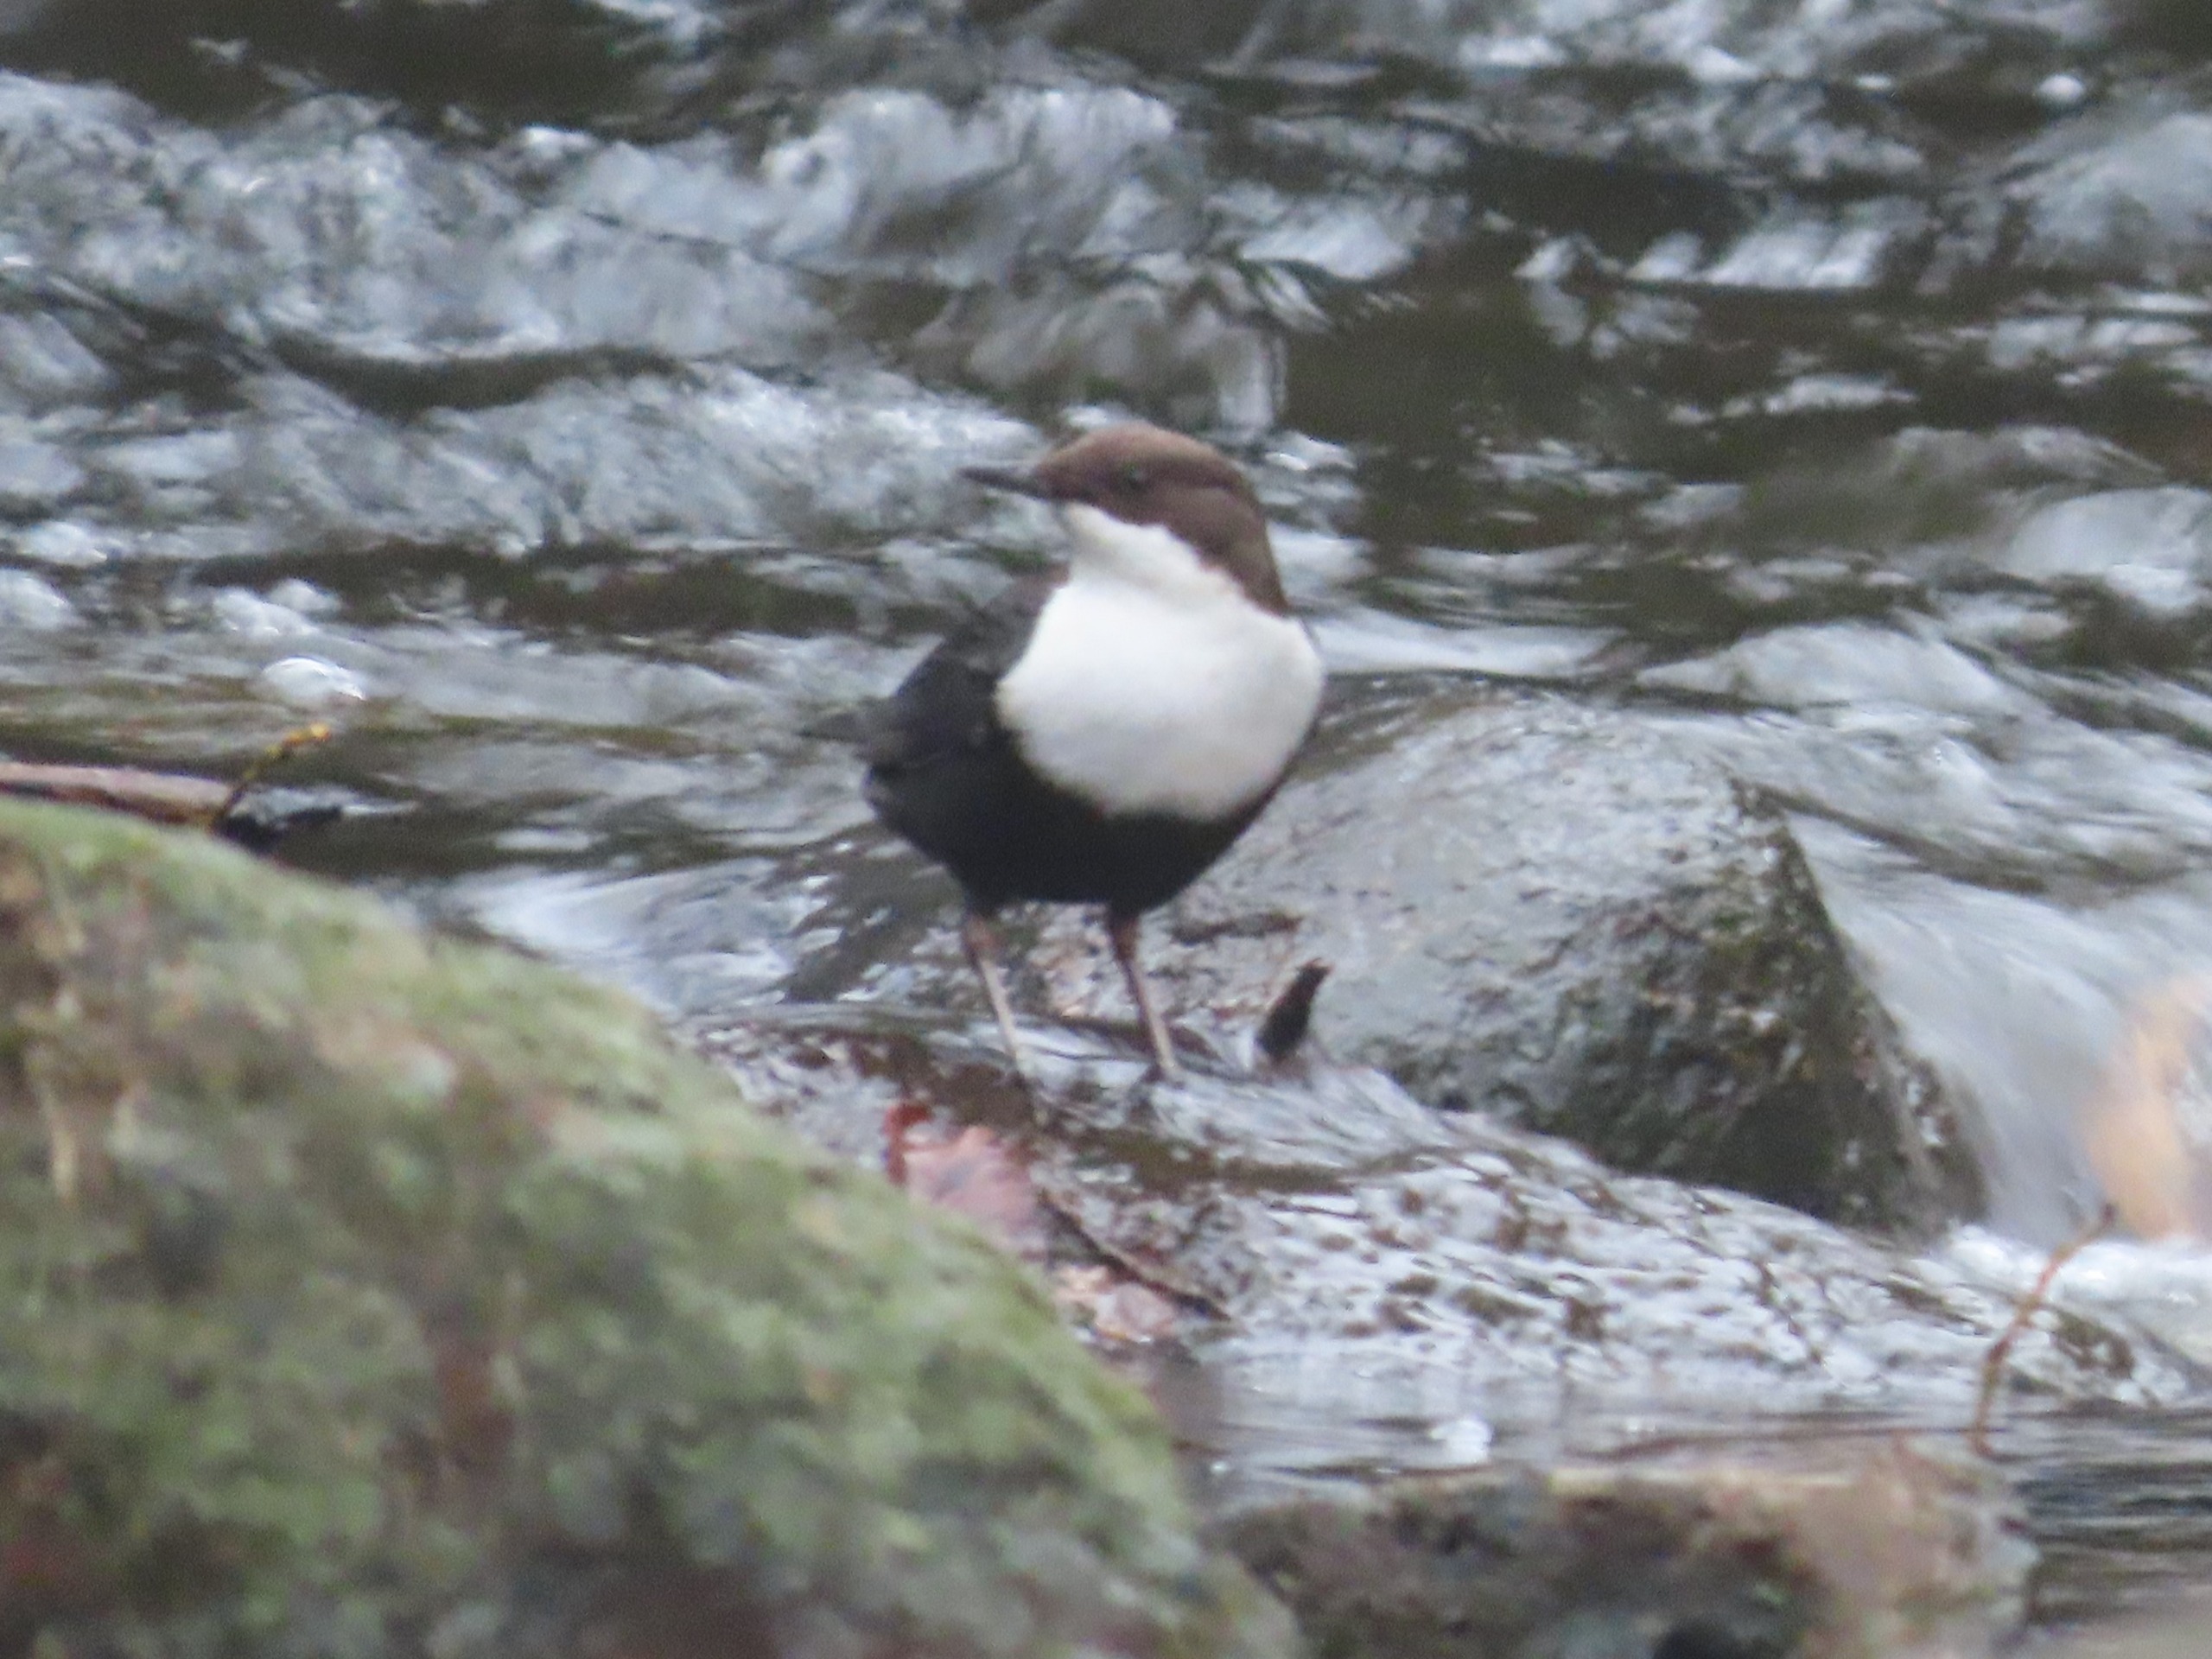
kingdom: Animalia
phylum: Chordata
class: Aves
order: Passeriformes
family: Cinclidae
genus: Cinclus
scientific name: Cinclus cinclus
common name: Vandstær
